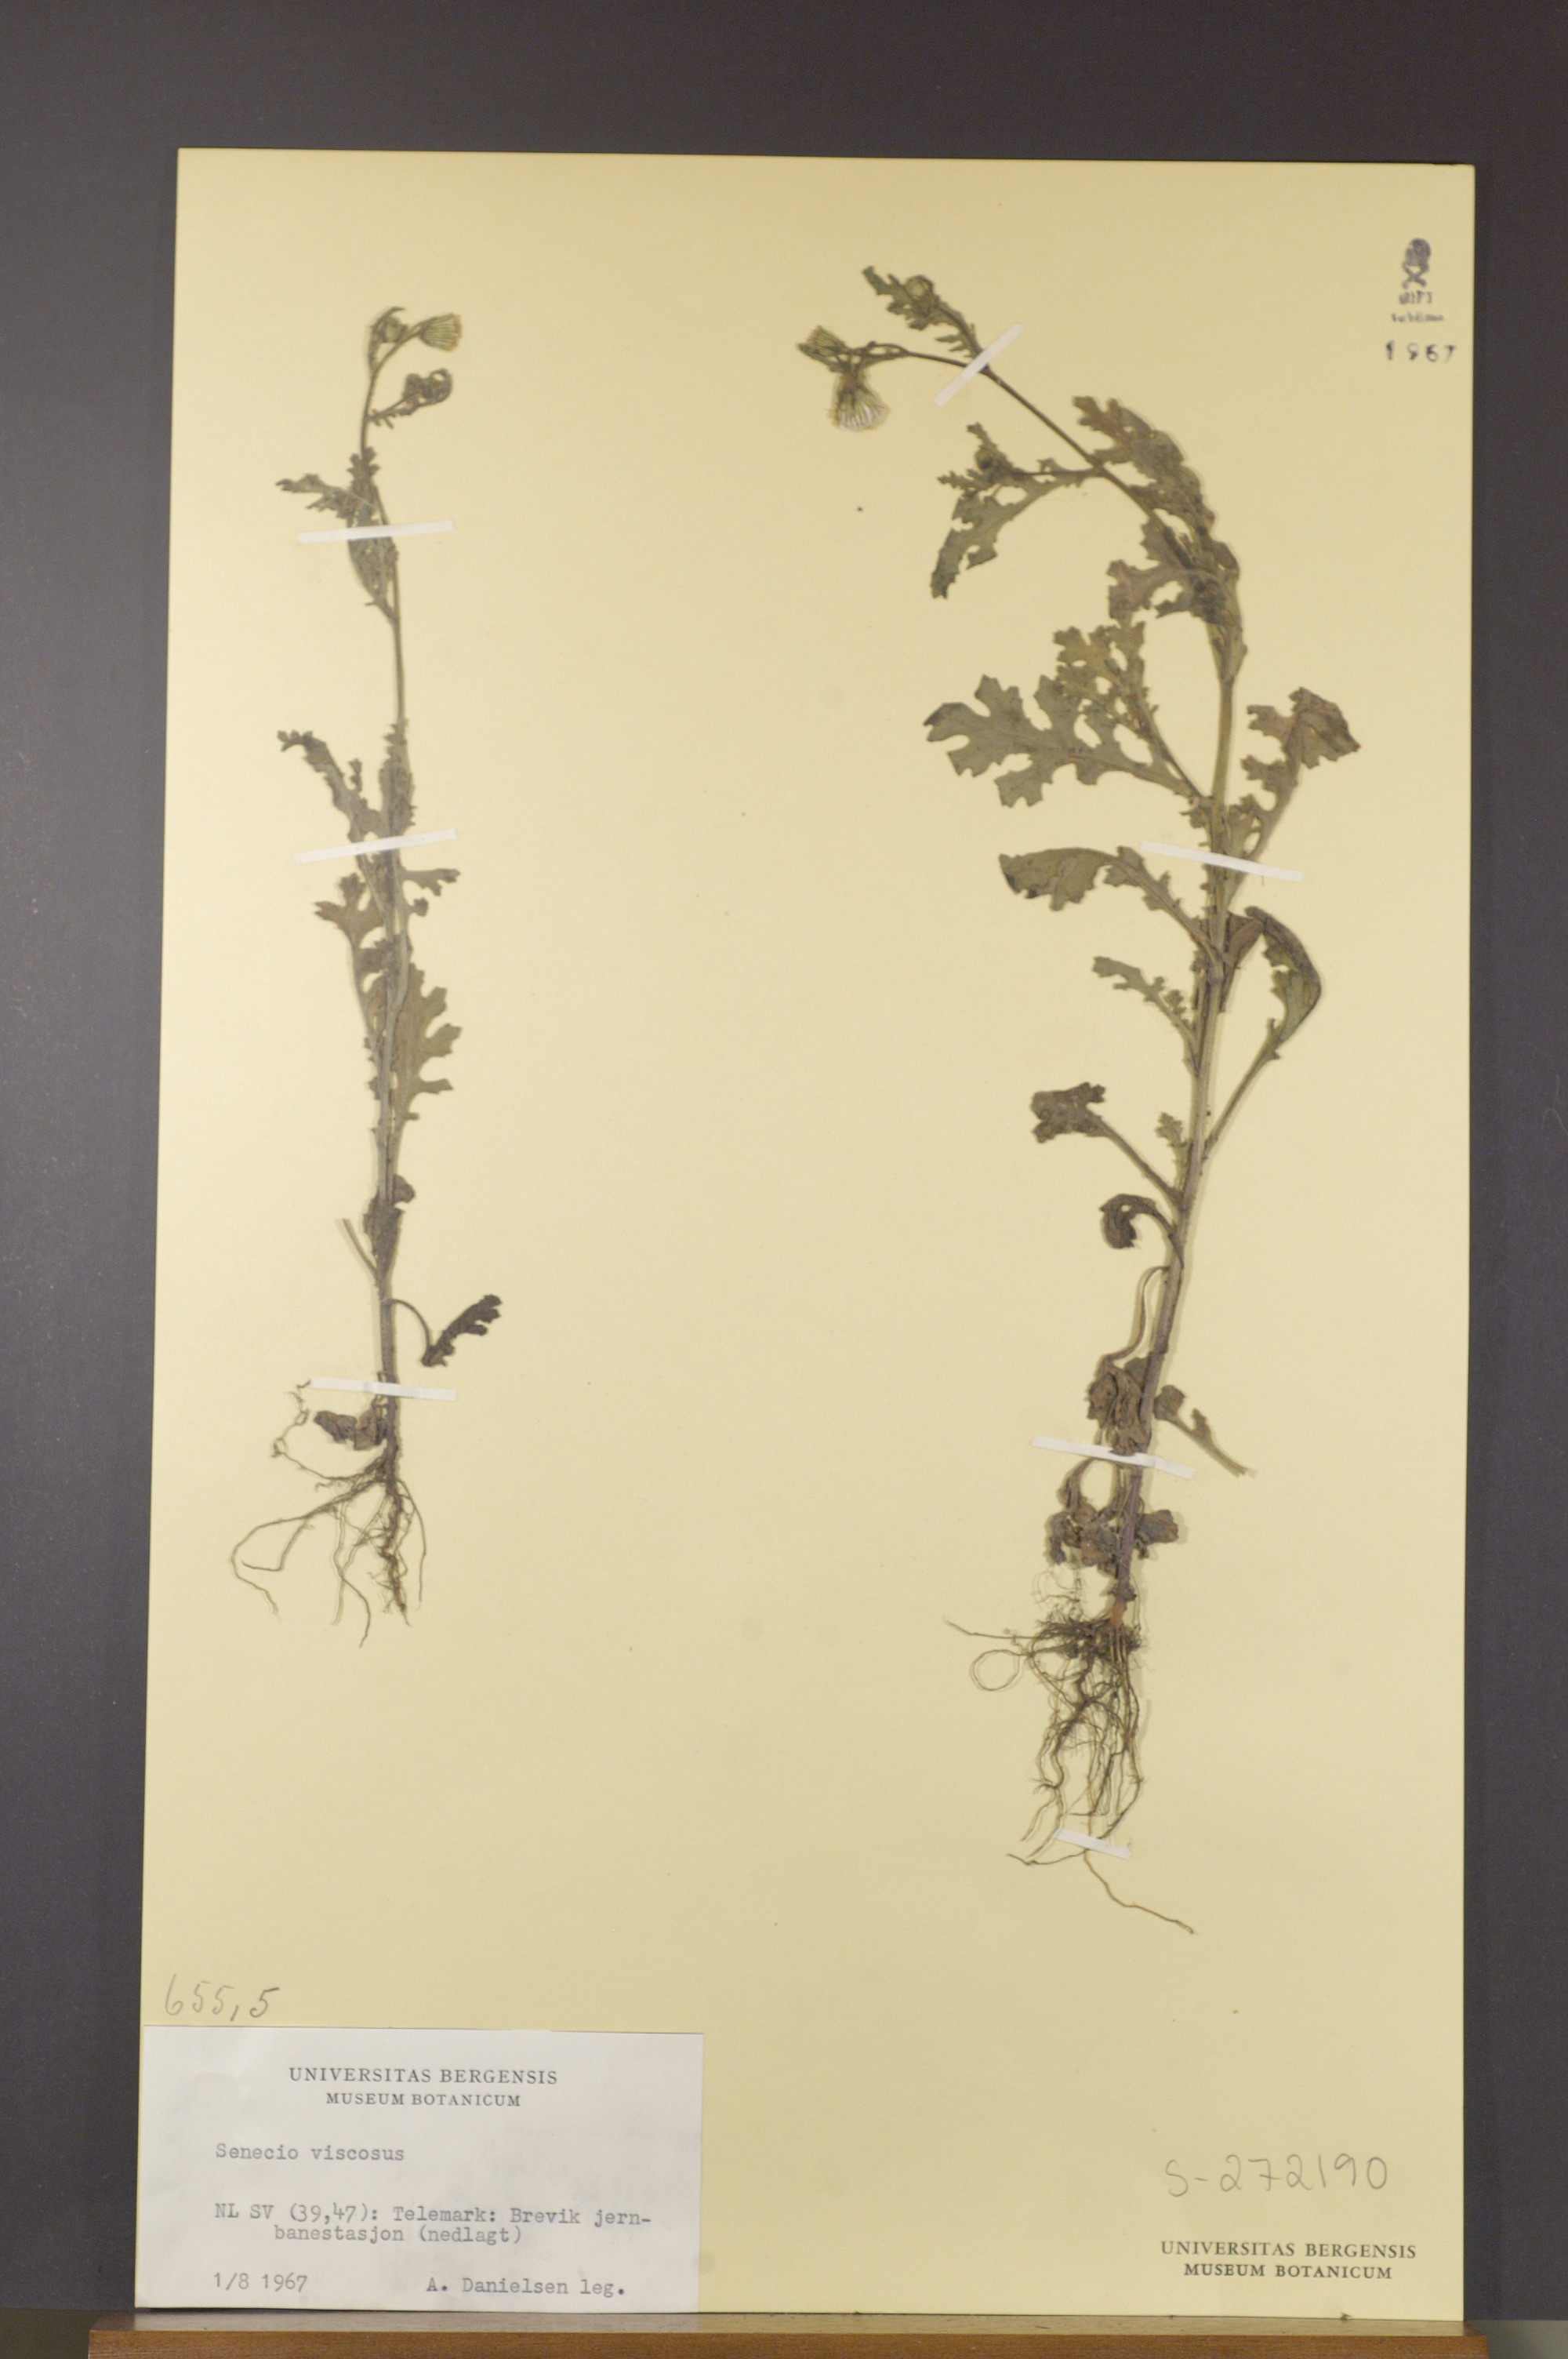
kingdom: Plantae
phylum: Tracheophyta
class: Magnoliopsida
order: Asterales
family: Asteraceae
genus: Senecio
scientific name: Senecio viscosus
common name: Sticky groundsel
